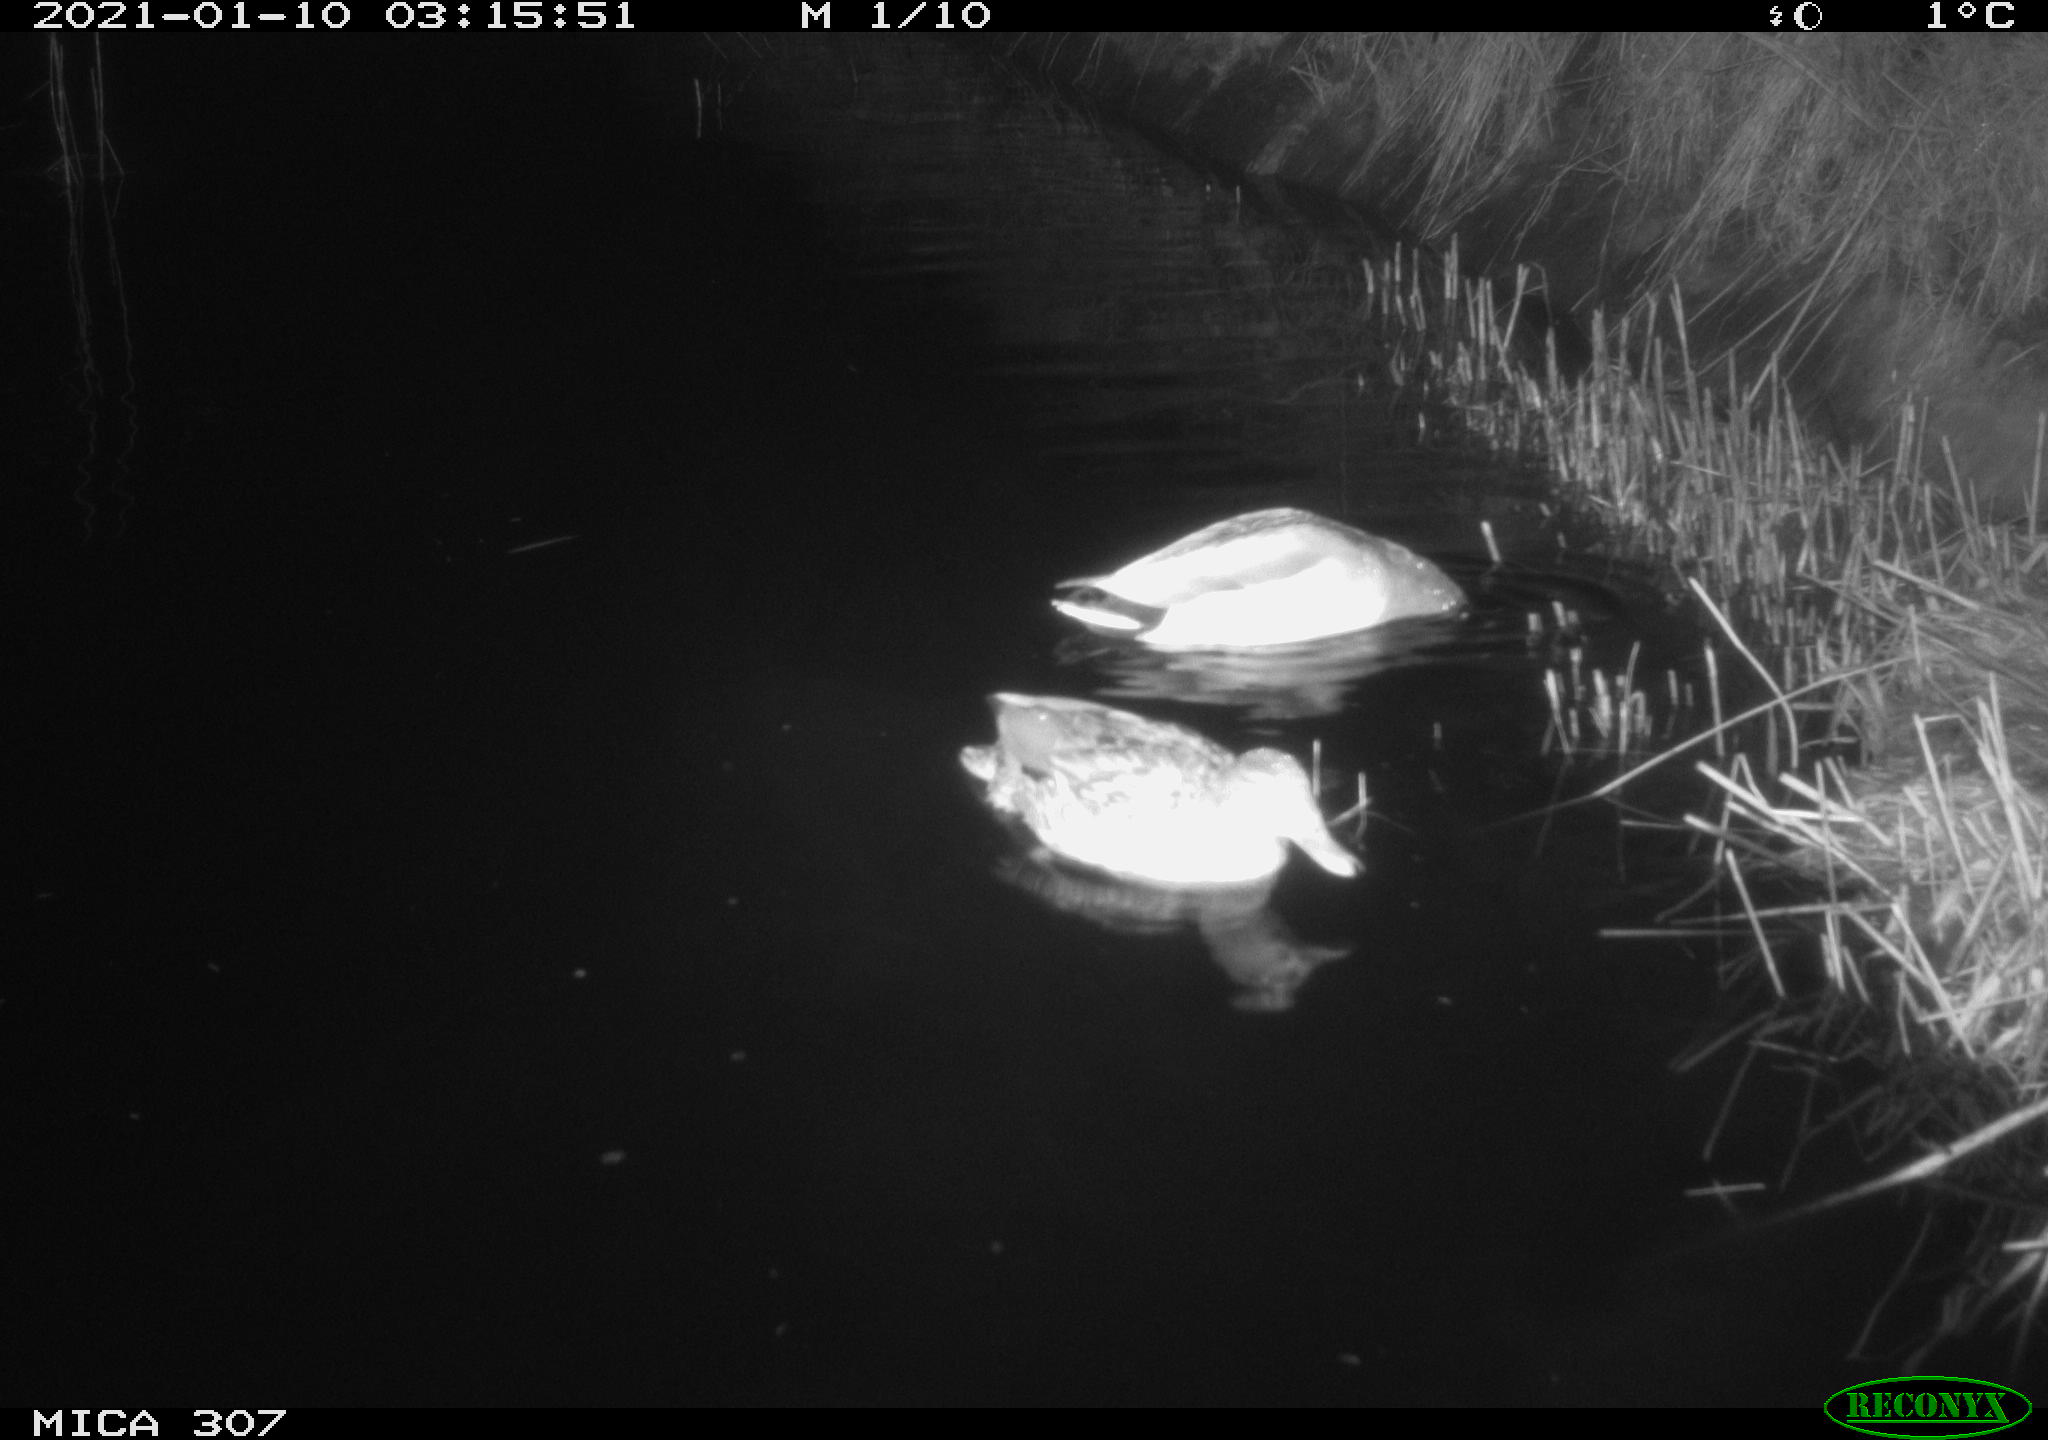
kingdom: Animalia
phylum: Chordata
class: Aves
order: Anseriformes
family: Anatidae
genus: Anas
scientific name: Anas platyrhynchos
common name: Mallard
